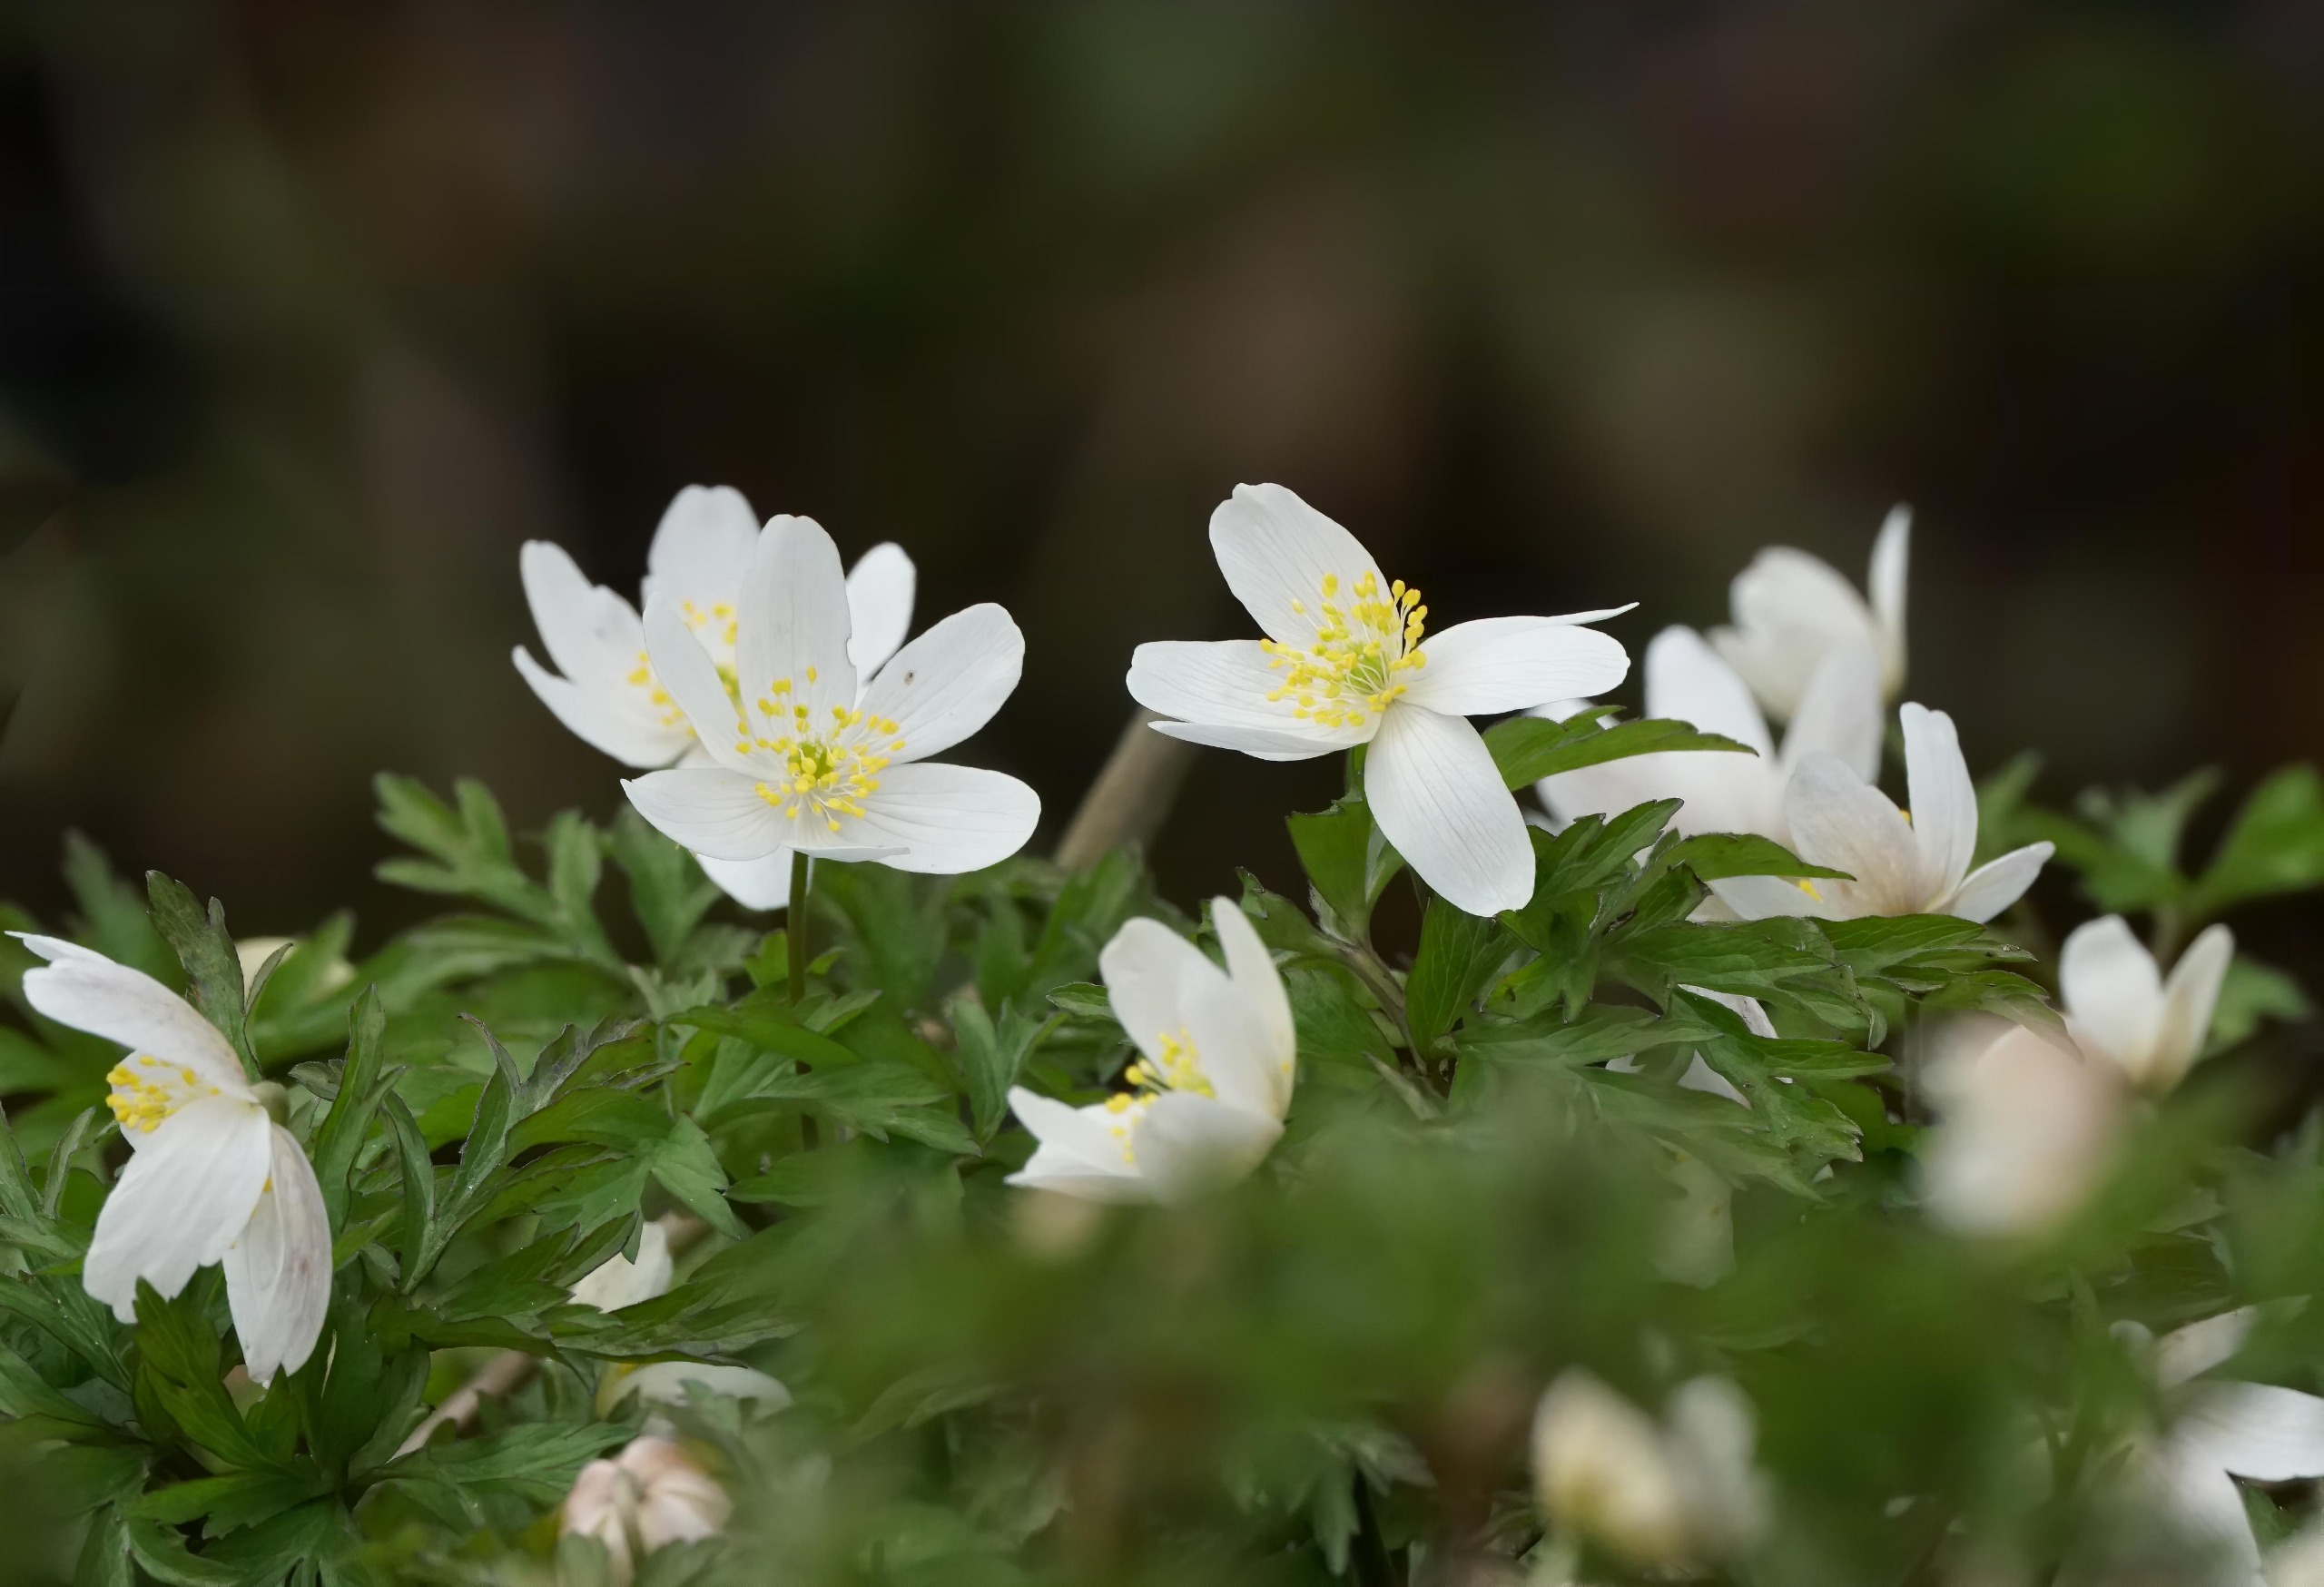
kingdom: Plantae
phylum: Tracheophyta
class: Magnoliopsida
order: Ranunculales
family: Ranunculaceae
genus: Anemone
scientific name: Anemone nemorosa
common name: Hvid anemone
